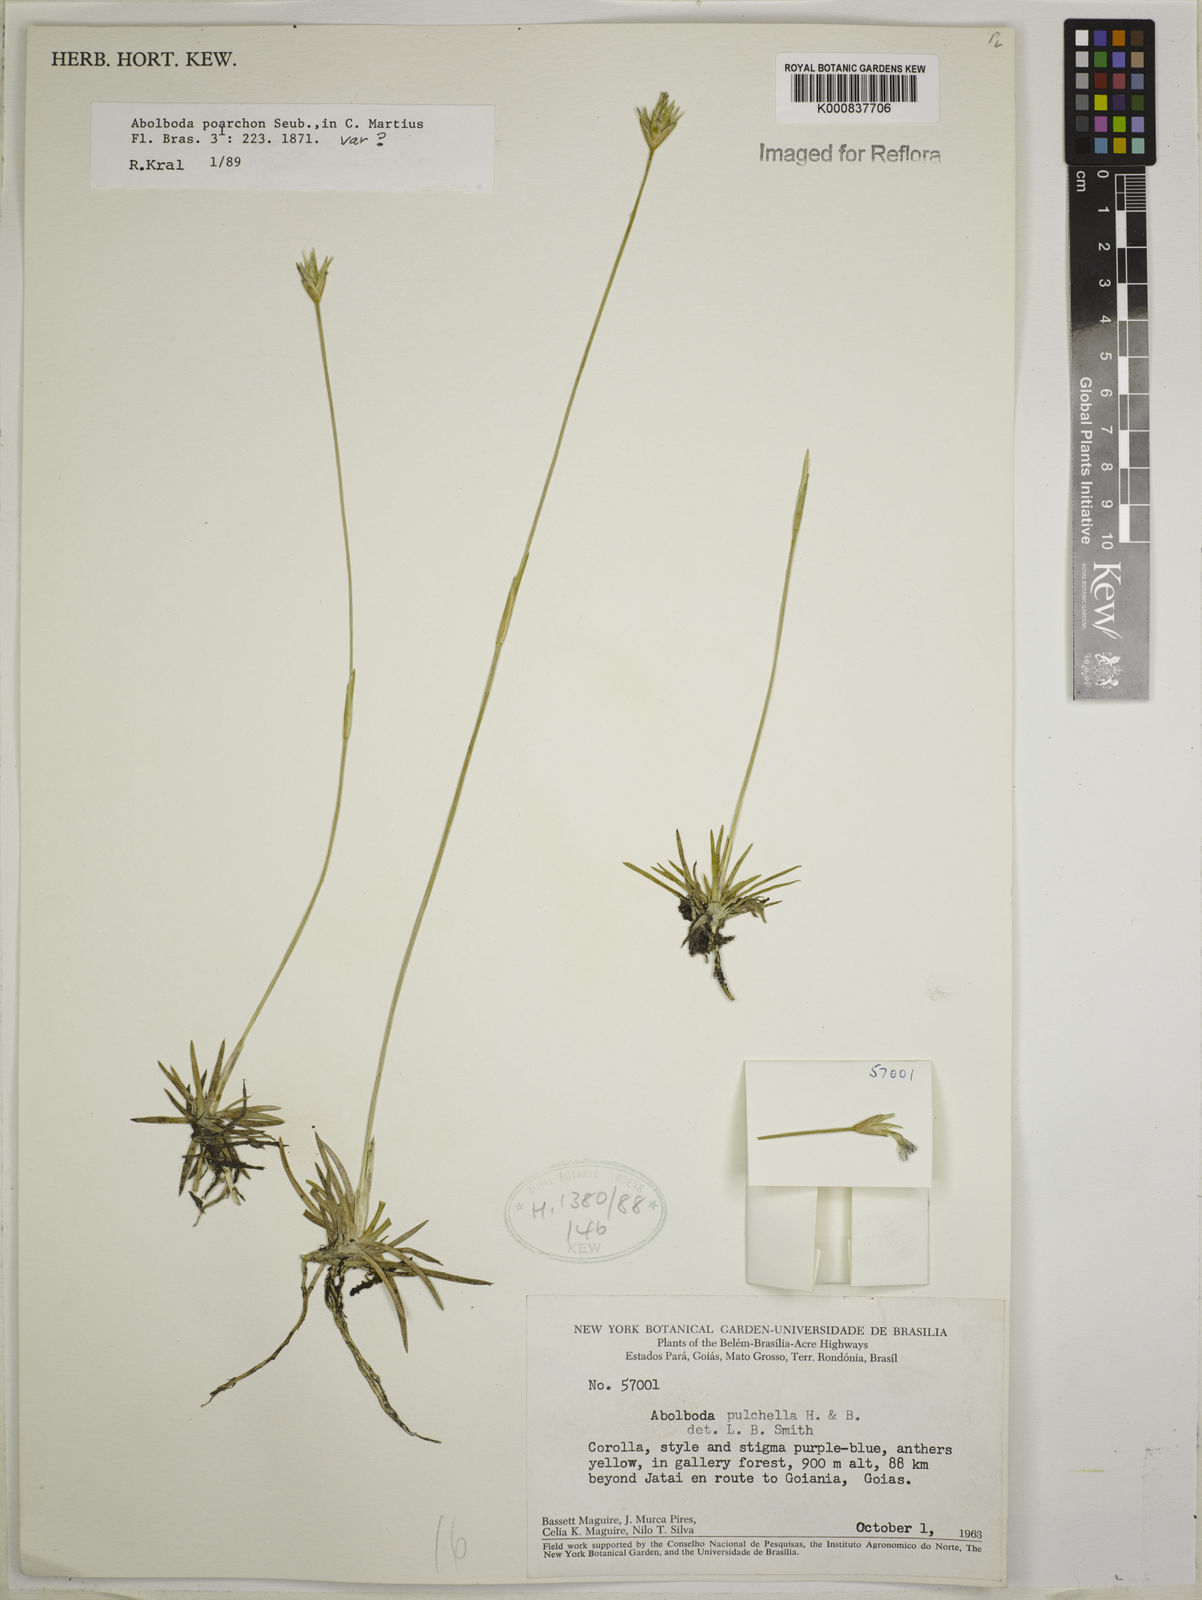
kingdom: Plantae
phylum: Tracheophyta
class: Liliopsida
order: Poales
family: Xyridaceae
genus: Abolboda
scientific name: Abolboda poarchon
